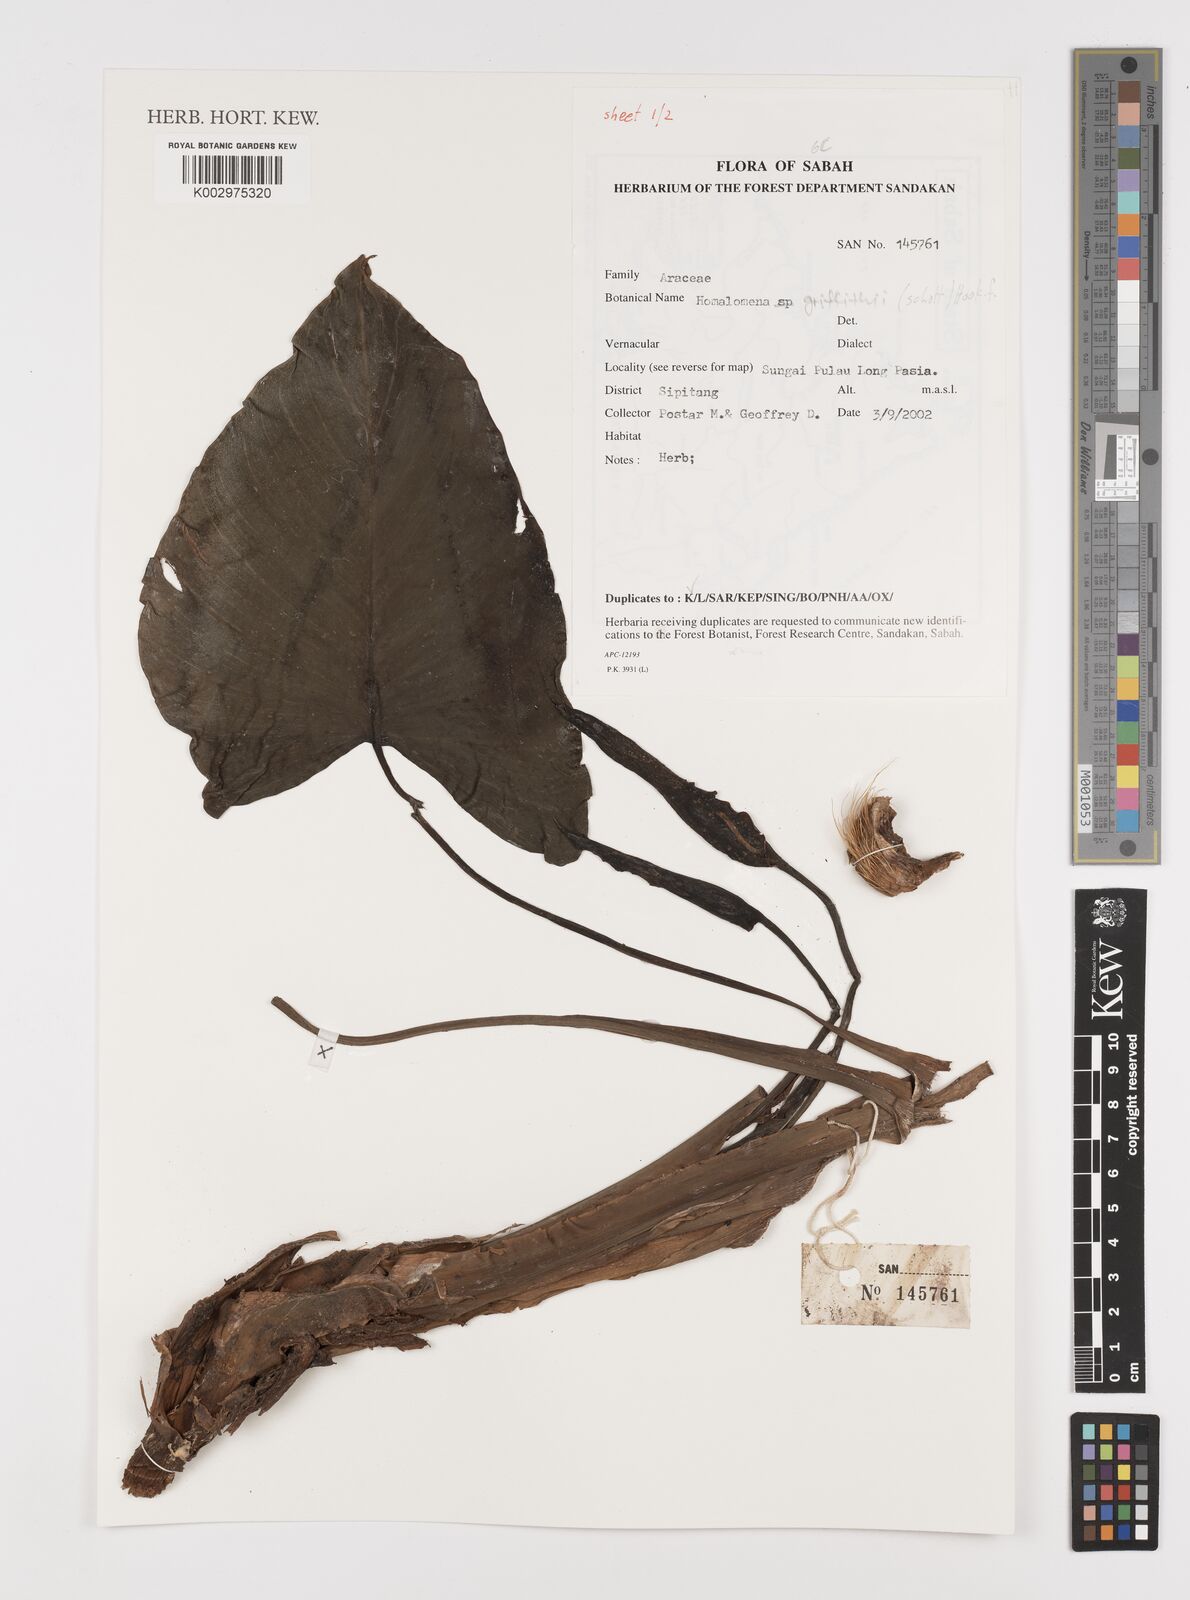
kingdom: Plantae
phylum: Tracheophyta
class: Liliopsida
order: Alismatales
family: Araceae
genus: Homalomena
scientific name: Homalomena griffithii
